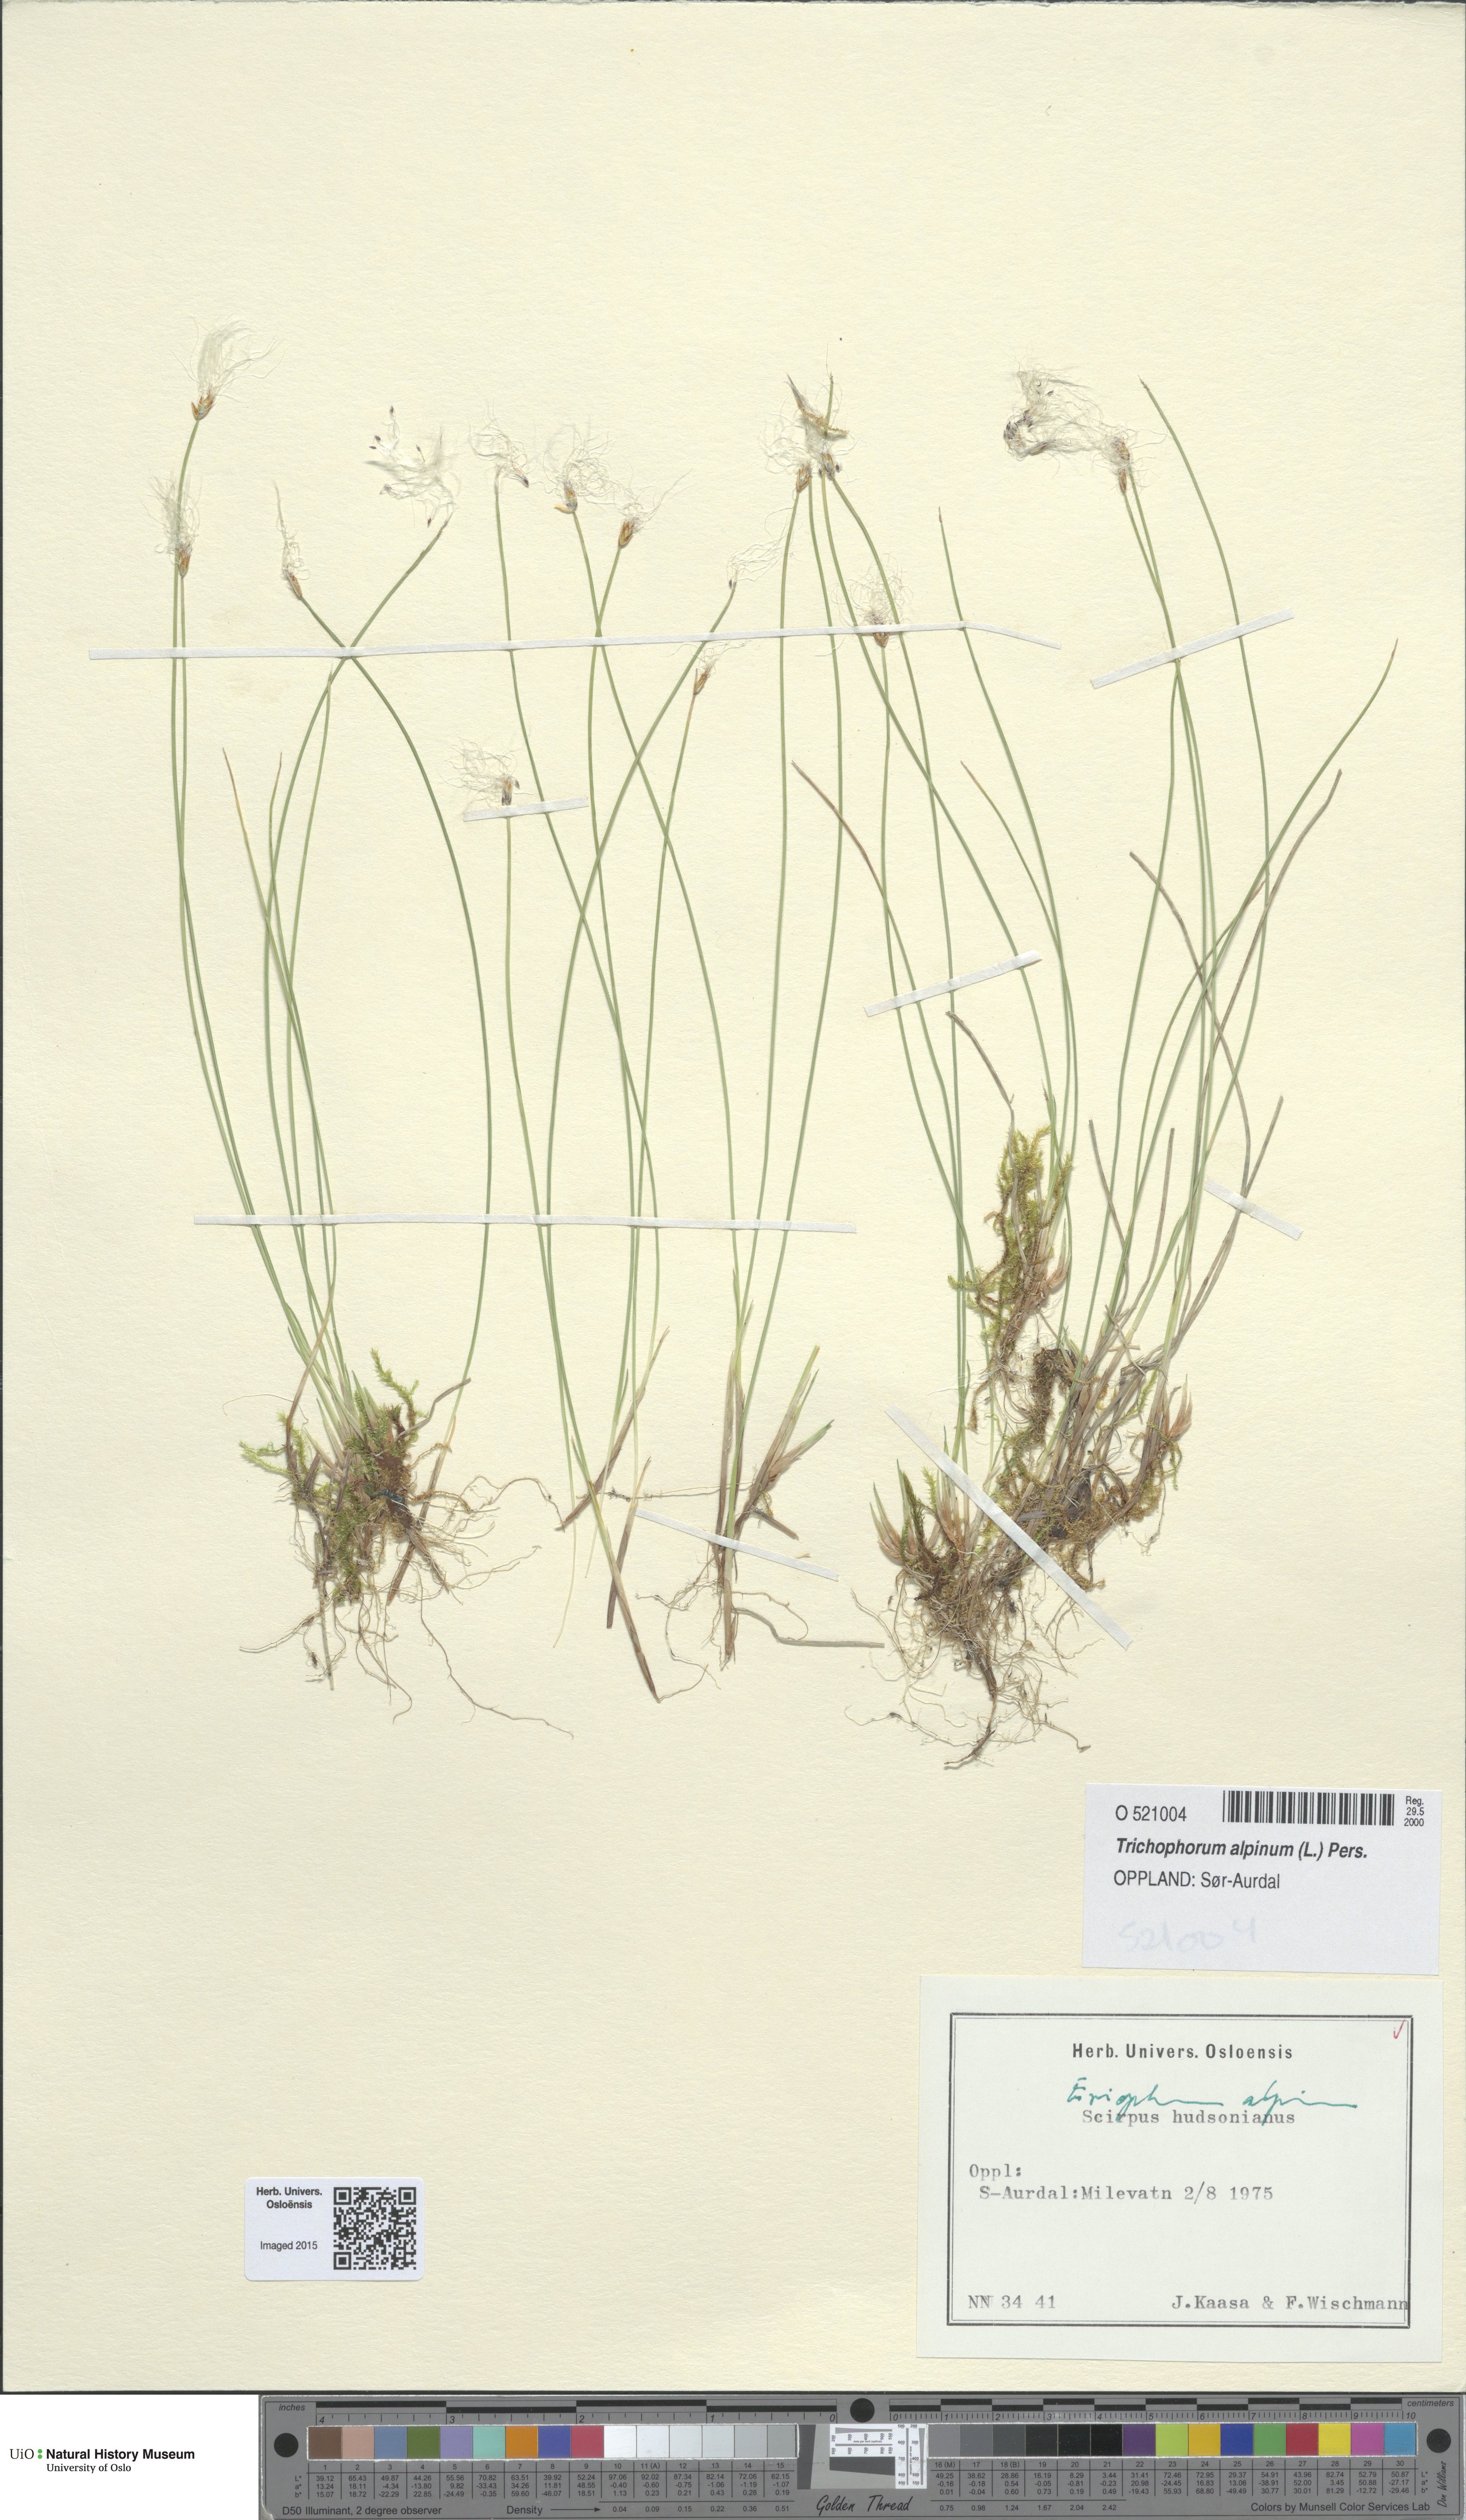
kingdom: Plantae
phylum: Tracheophyta
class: Liliopsida
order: Poales
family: Cyperaceae
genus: Trichophorum
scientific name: Trichophorum alpinum
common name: Alpine bulrush
